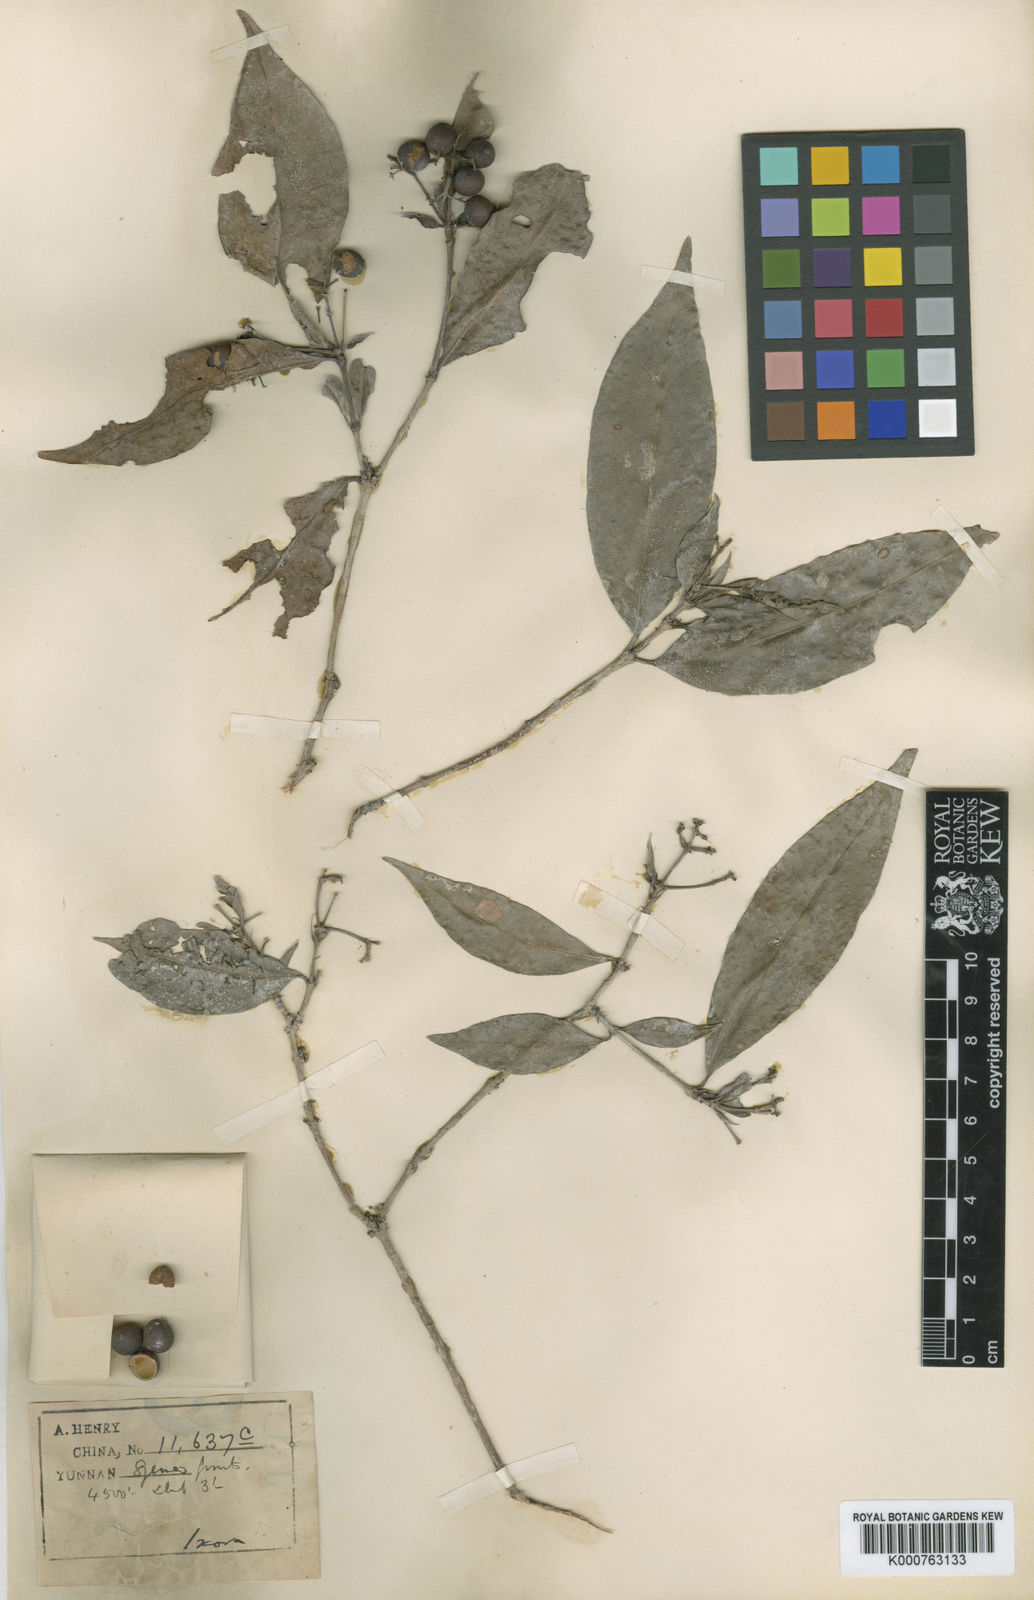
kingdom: Plantae
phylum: Tracheophyta
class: Magnoliopsida
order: Gentianales
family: Rubiaceae
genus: Ixora
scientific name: Ixora
